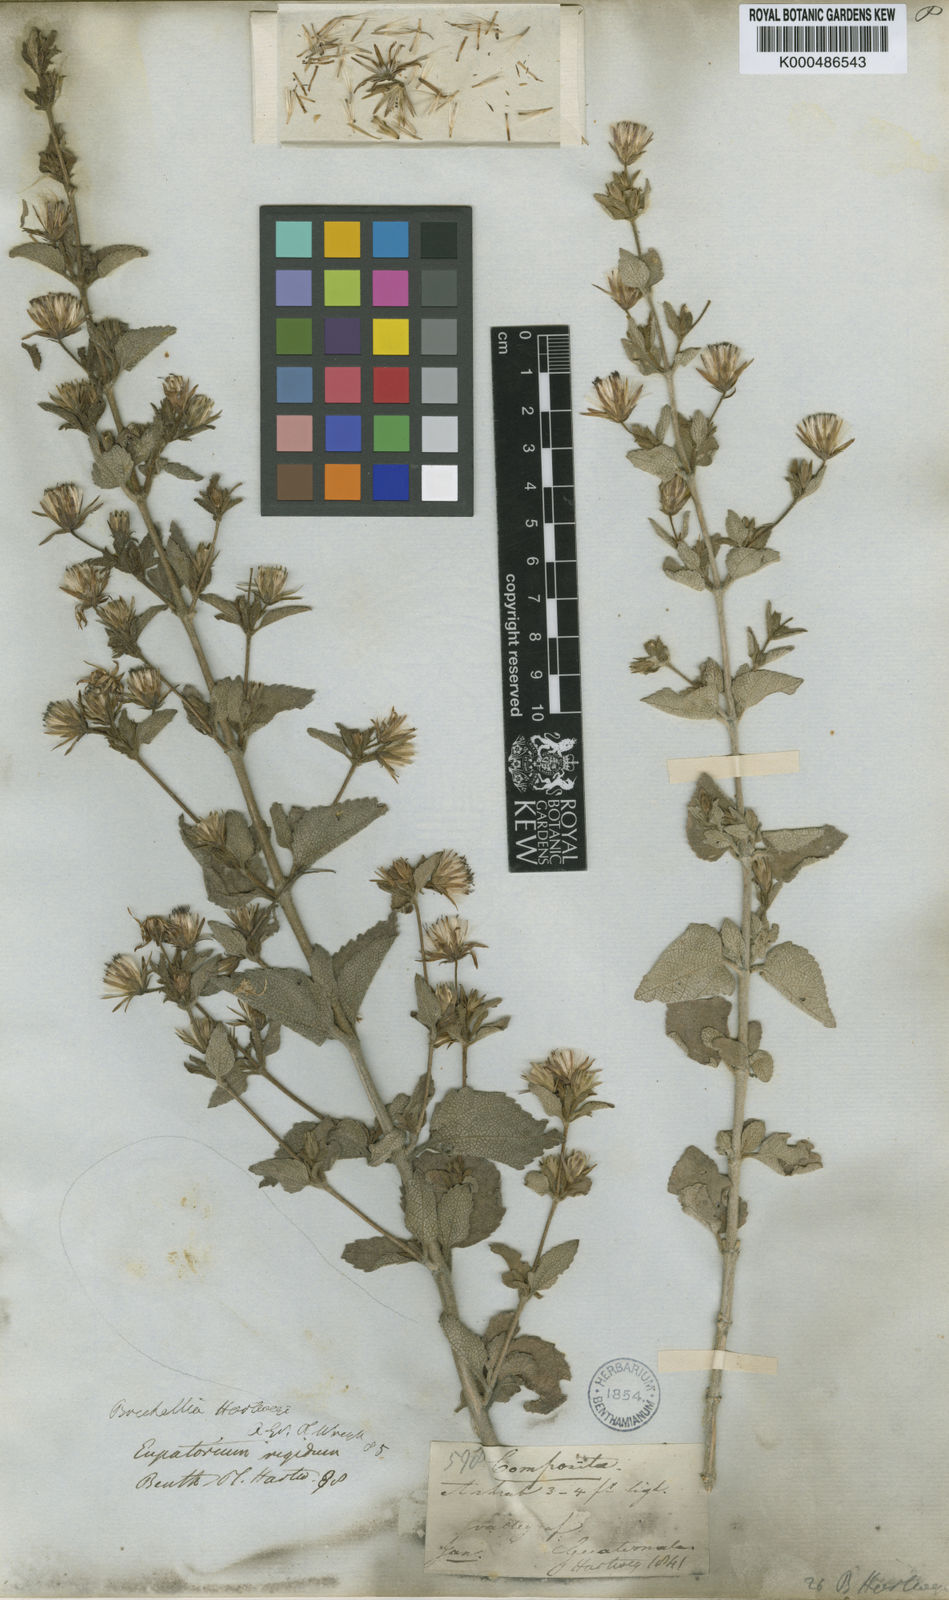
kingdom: Plantae
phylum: Tracheophyta
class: Magnoliopsida
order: Asterales
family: Asteraceae
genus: Brickellia
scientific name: Brickellia paniculata
